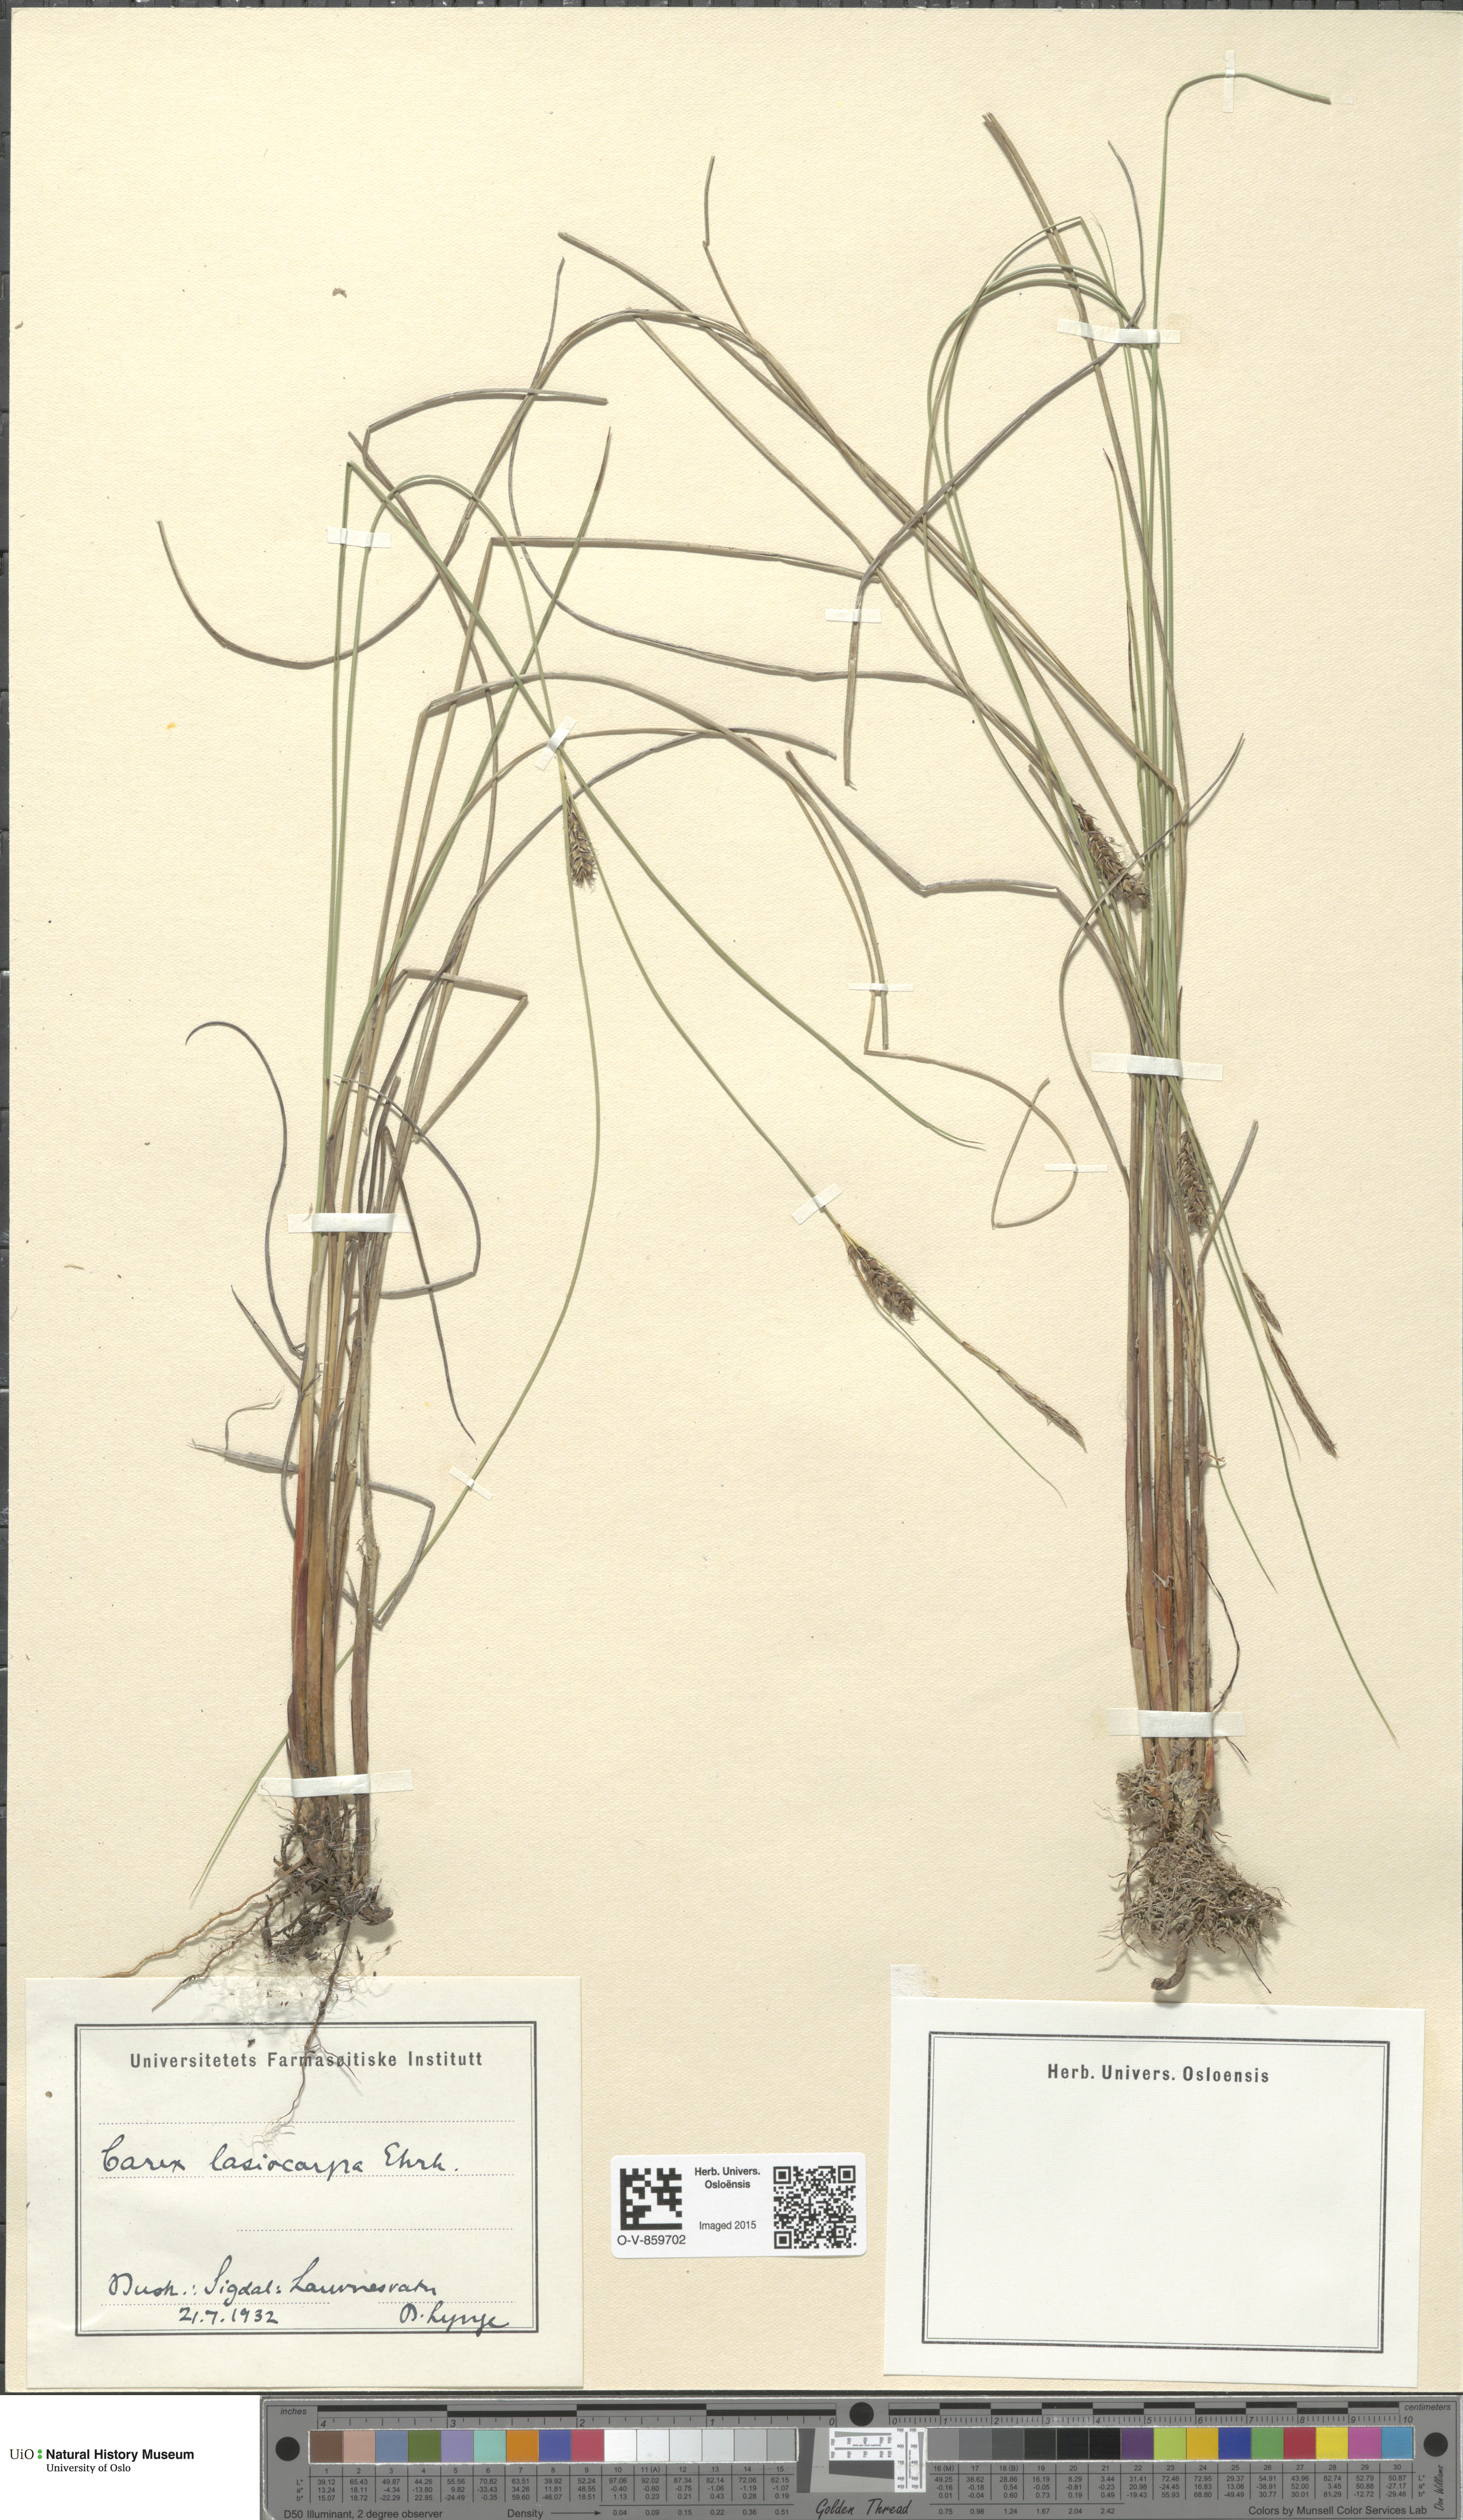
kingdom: Plantae
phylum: Tracheophyta
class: Liliopsida
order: Poales
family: Cyperaceae
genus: Carex
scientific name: Carex lasiocarpa
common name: Slender sedge
